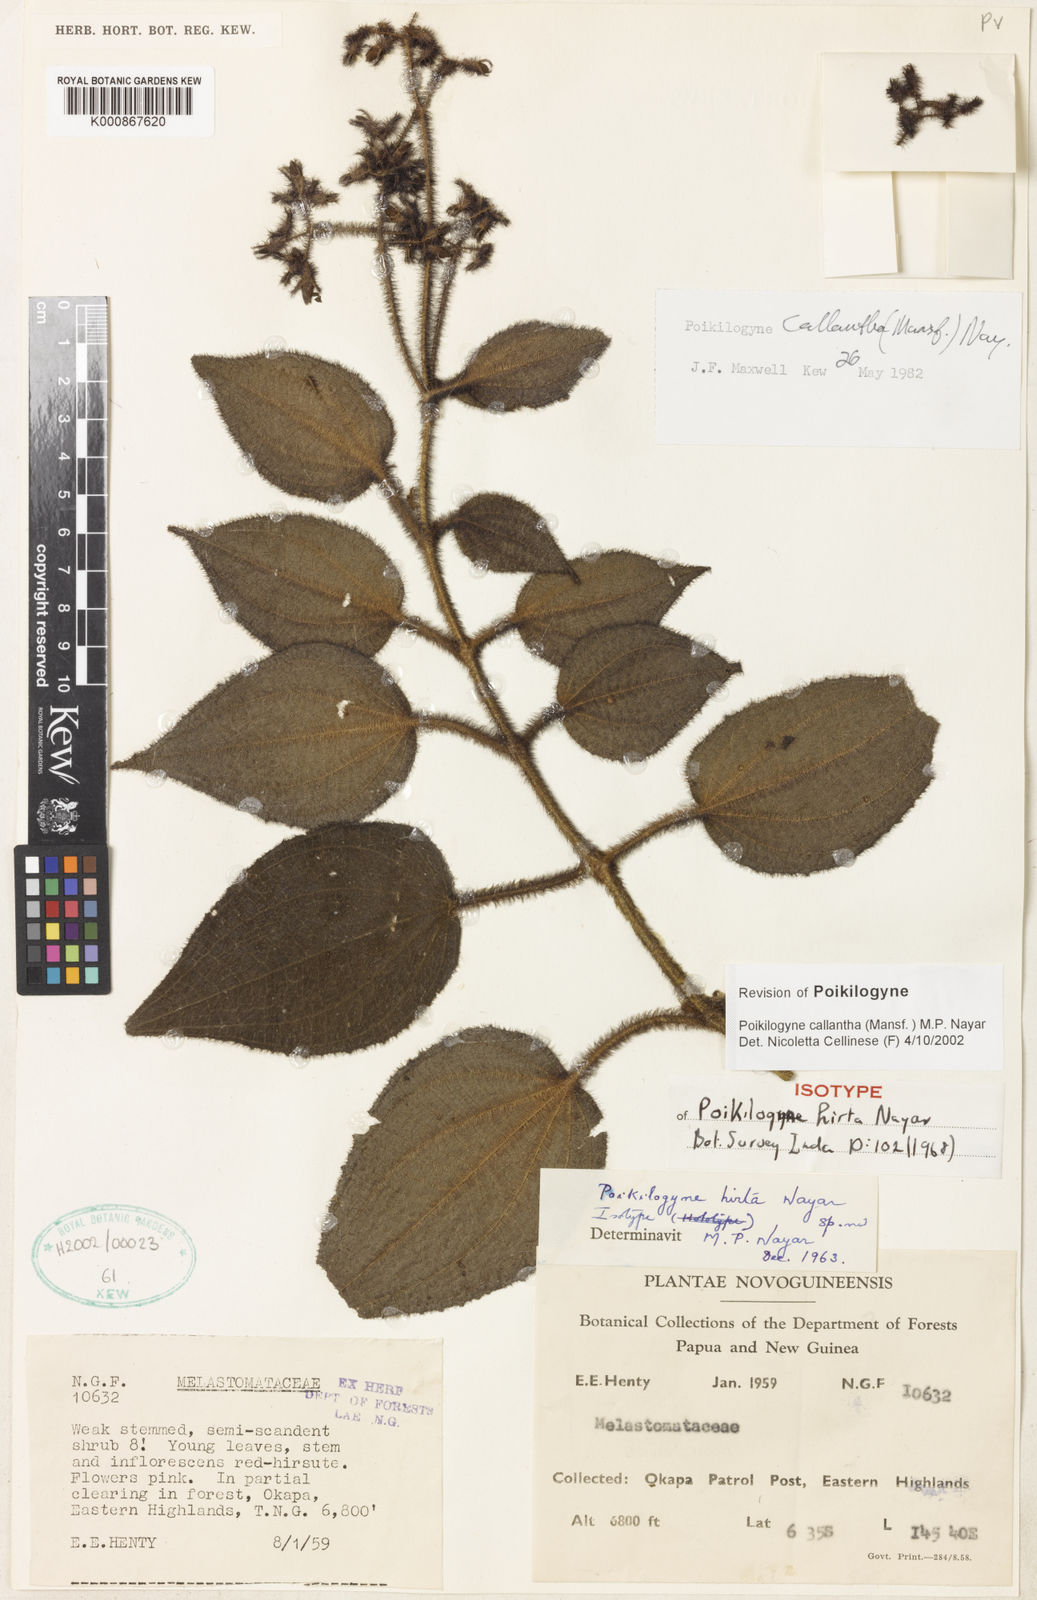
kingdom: Plantae
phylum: Tracheophyta
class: Magnoliopsida
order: Myrtales
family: Melastomataceae
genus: Poikilogyne
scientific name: Poikilogyne callantha
